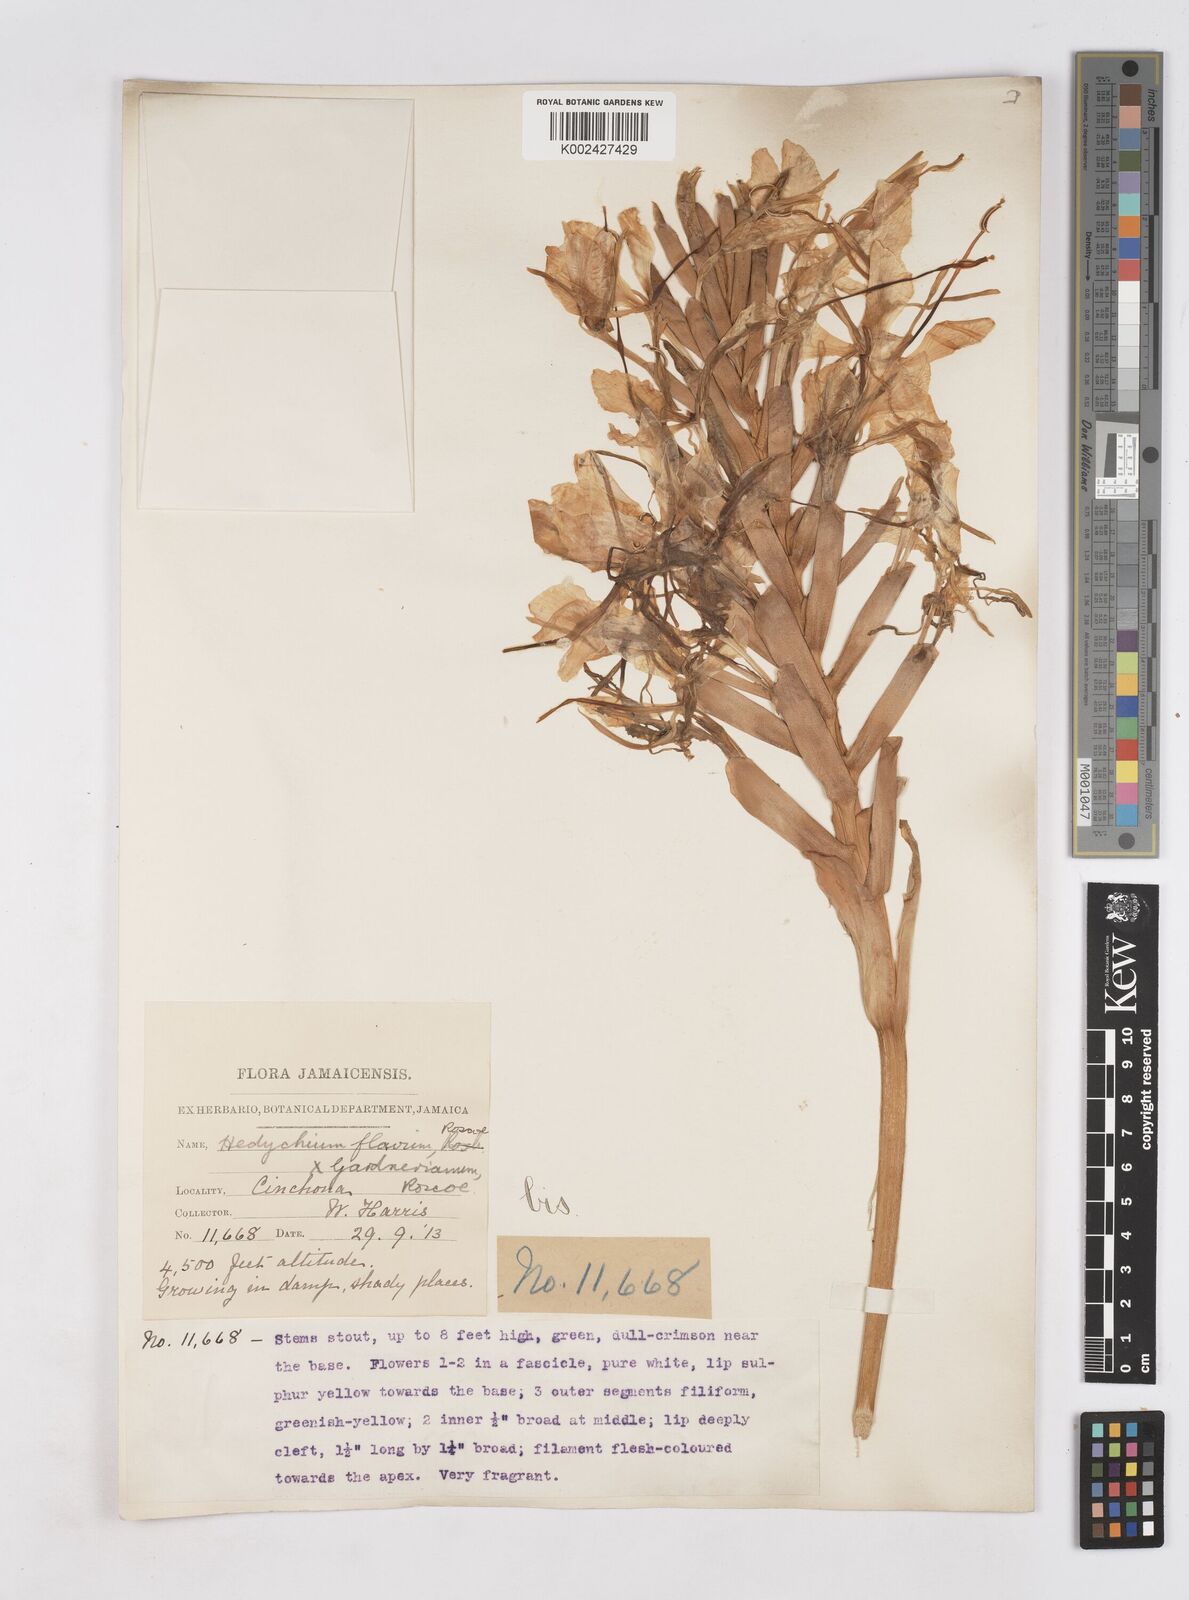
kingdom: Plantae
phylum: Tracheophyta
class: Liliopsida
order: Zingiberales
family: Zingiberaceae
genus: Hedychium
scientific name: Hedychium
